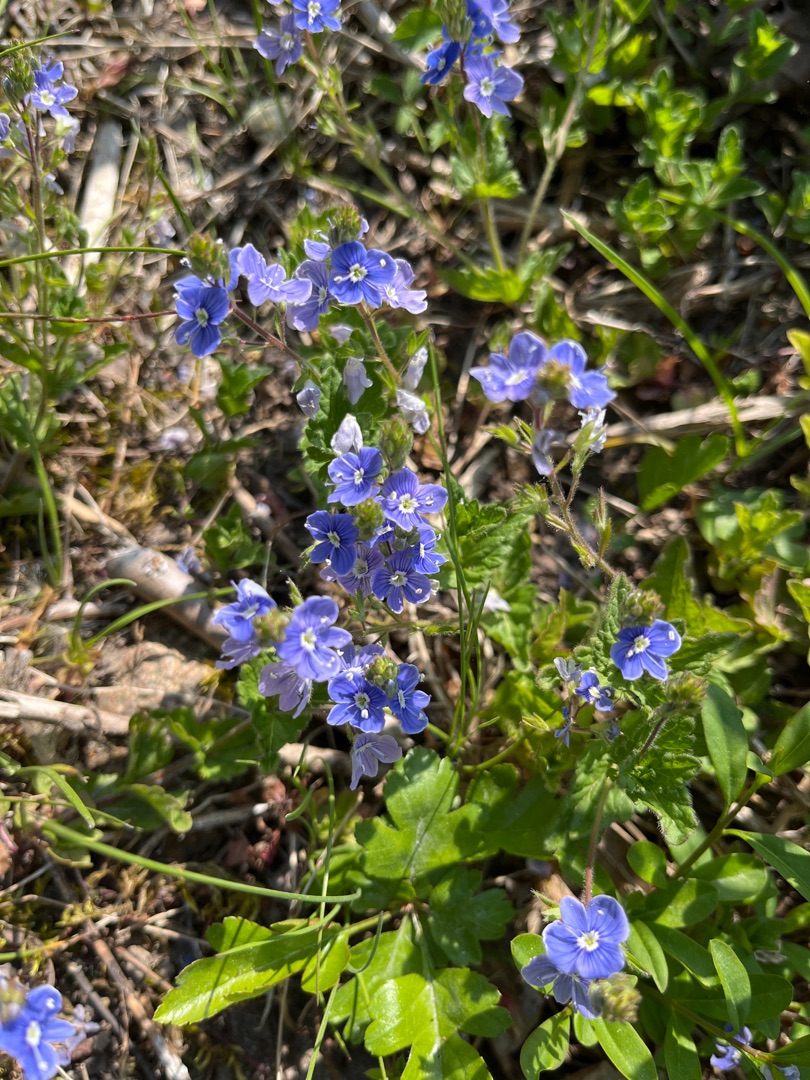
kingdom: Plantae
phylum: Tracheophyta
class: Magnoliopsida
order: Lamiales
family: Plantaginaceae
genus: Veronica
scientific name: Veronica chamaedrys
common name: Tveskægget ærenpris
